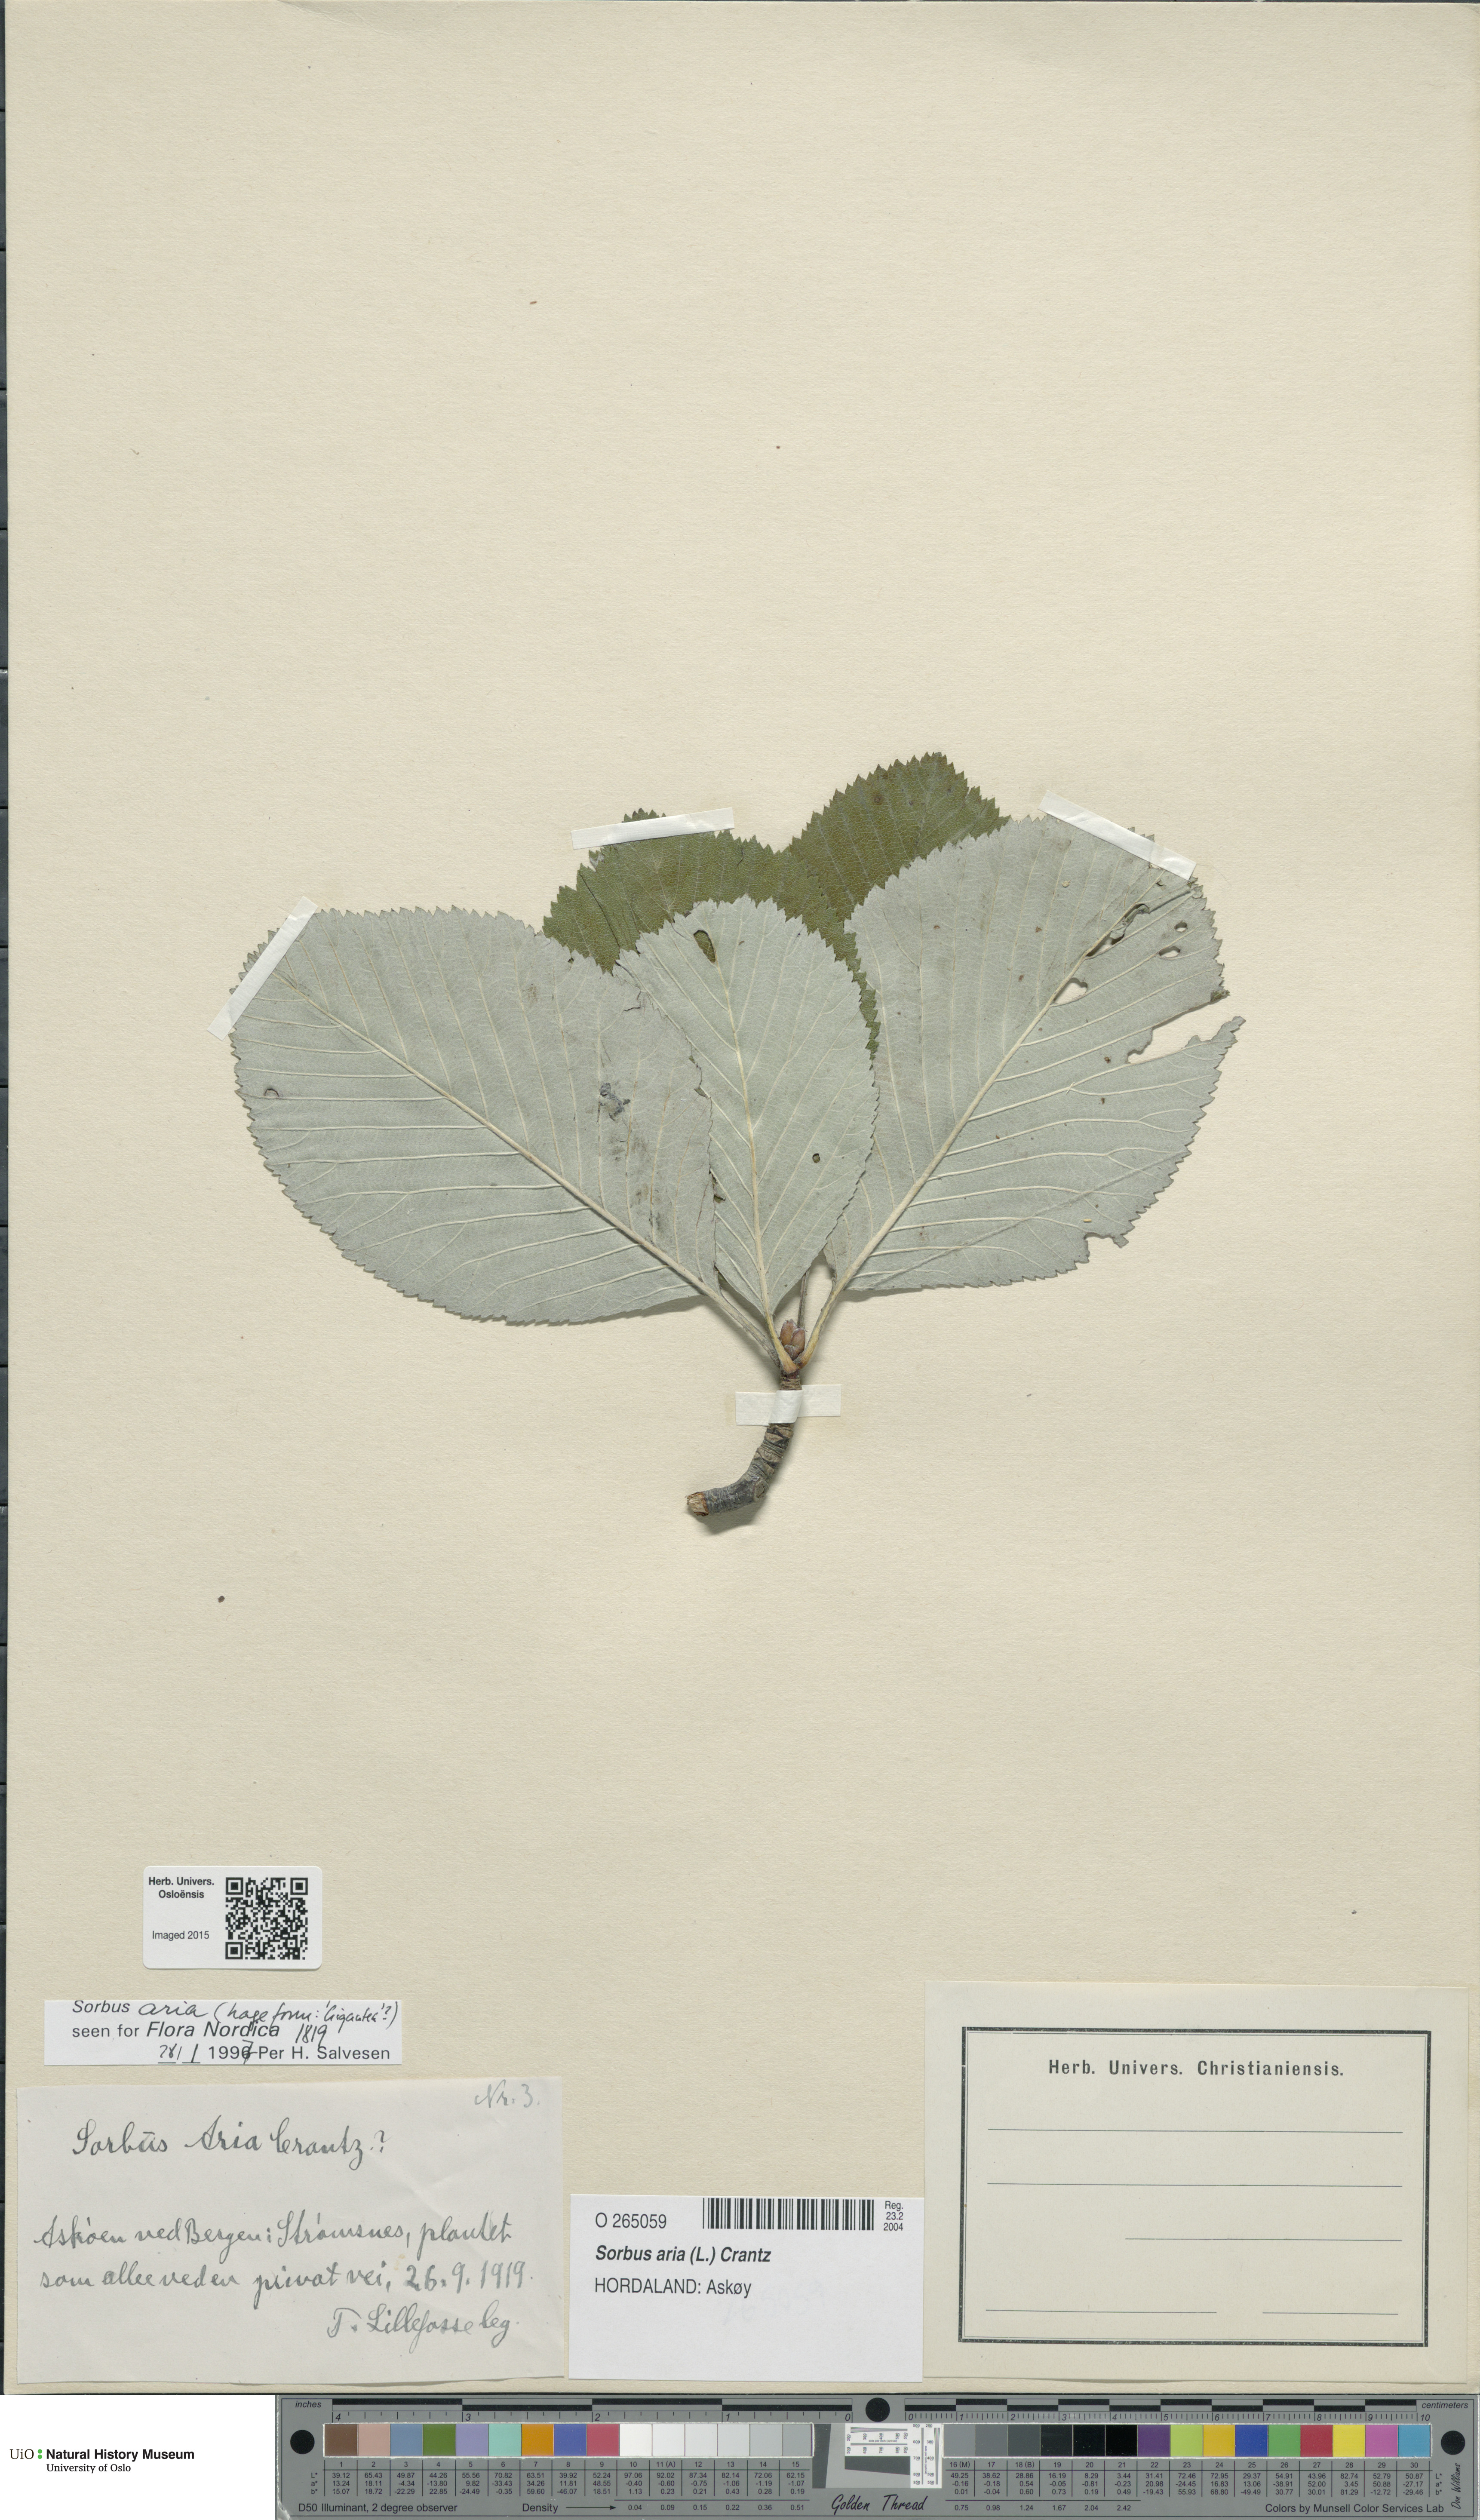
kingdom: Plantae
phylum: Tracheophyta
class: Magnoliopsida
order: Rosales
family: Rosaceae
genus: Aria
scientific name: Aria edulis
